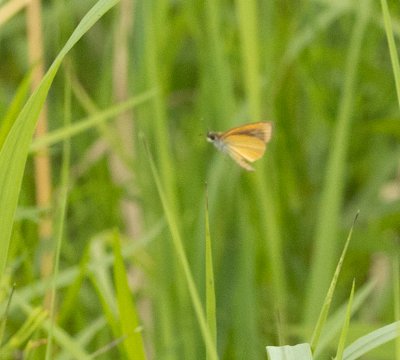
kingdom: Animalia
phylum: Arthropoda
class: Insecta
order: Lepidoptera
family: Hesperiidae
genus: Ancyloxypha
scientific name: Ancyloxypha numitor
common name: Least Skipper
